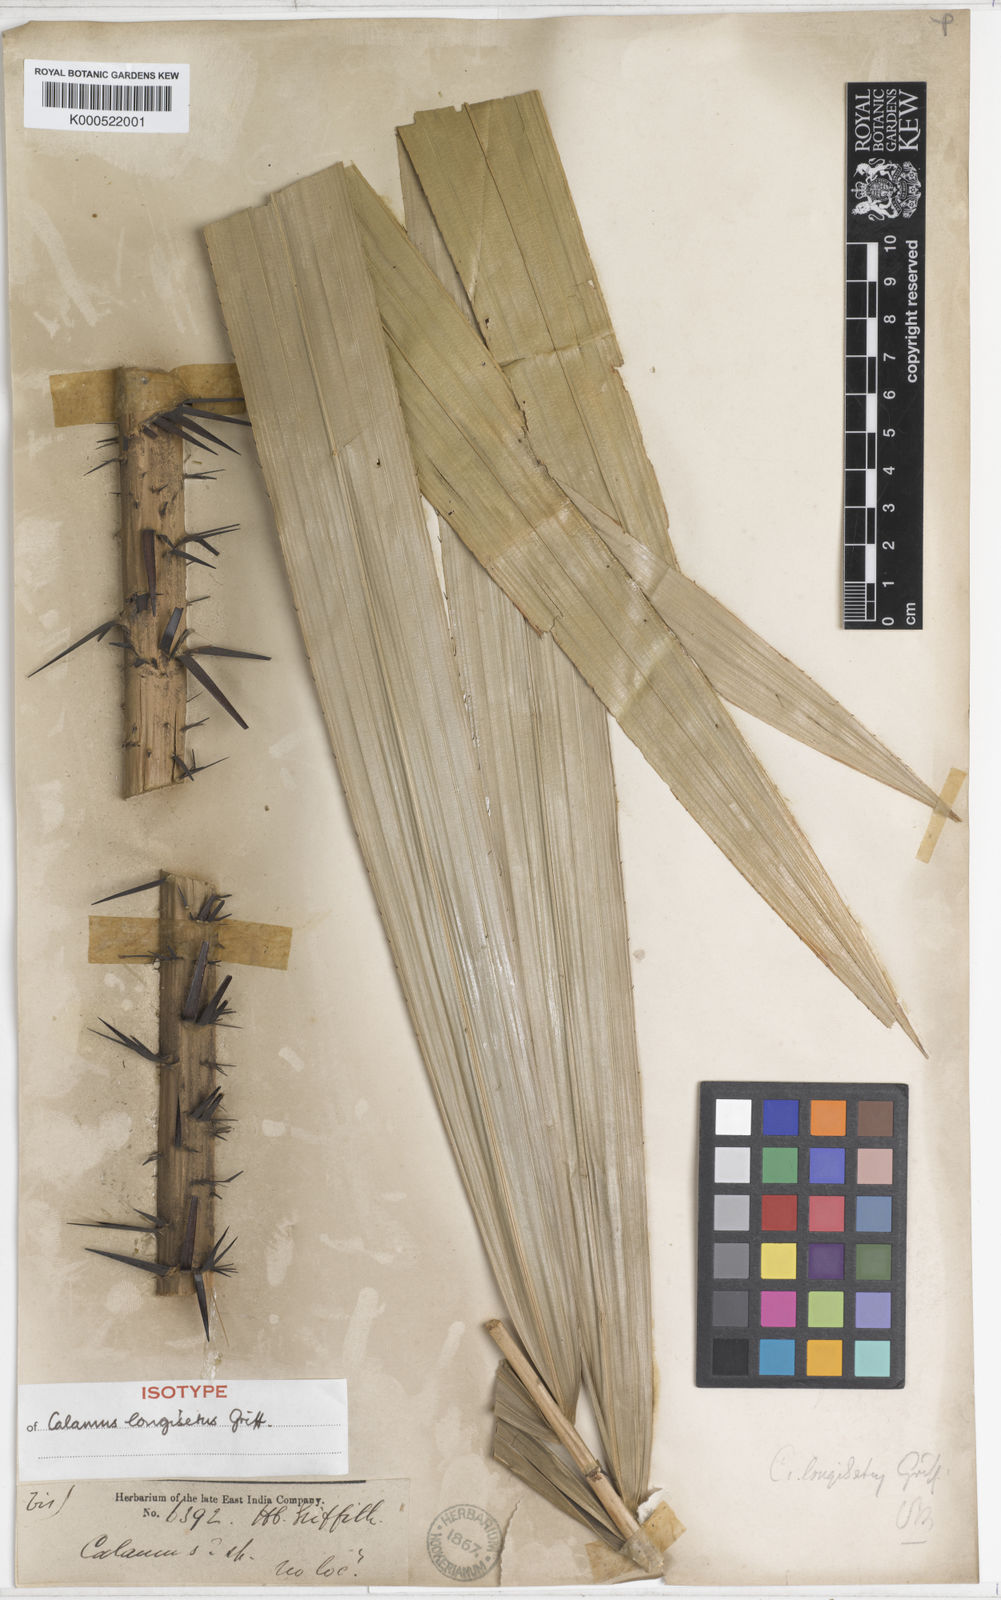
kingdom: Plantae
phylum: Tracheophyta
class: Liliopsida
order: Arecales
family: Arecaceae
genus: Calamus
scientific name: Calamus longisetus
